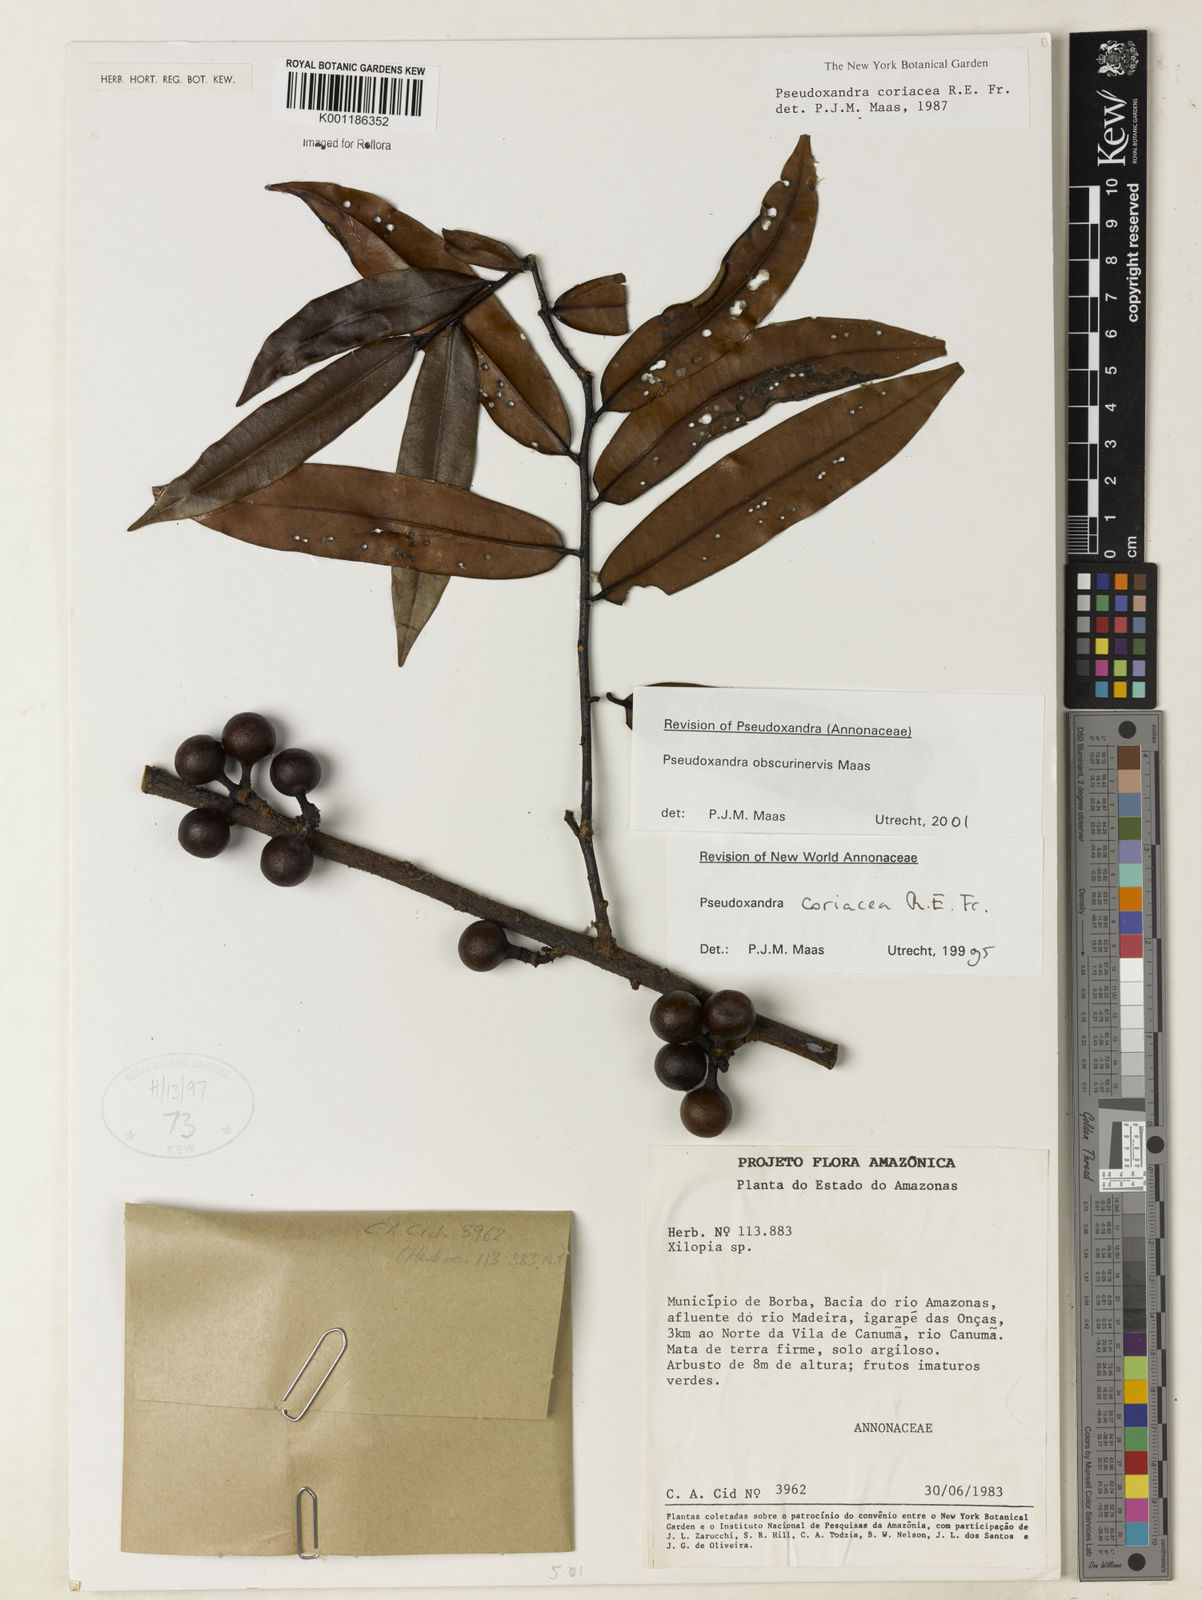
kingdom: Plantae
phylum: Tracheophyta
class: Magnoliopsida
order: Magnoliales
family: Annonaceae
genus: Pseudoxandra
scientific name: Pseudoxandra obscurinervis
